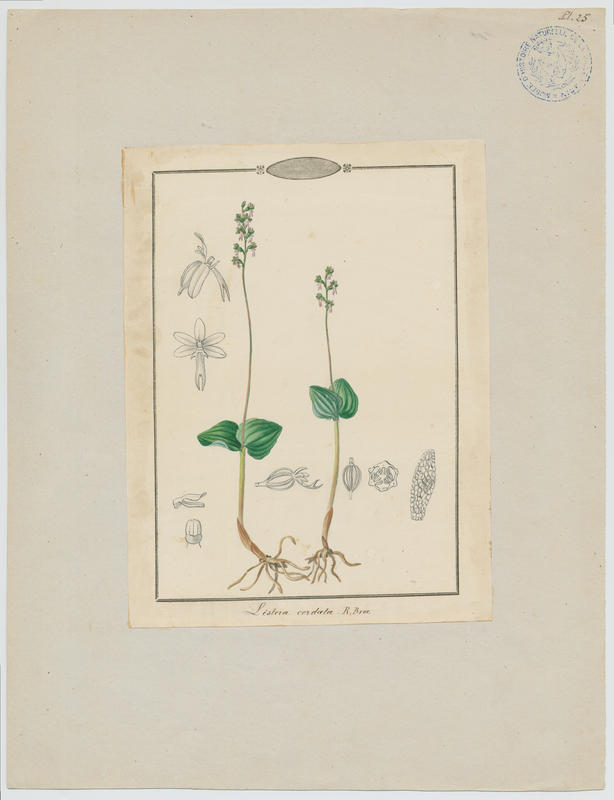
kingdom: Plantae
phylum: Tracheophyta
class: Liliopsida
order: Asparagales
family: Orchidaceae
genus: Neottia
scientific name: Neottia cordata
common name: Lesser twayblade
